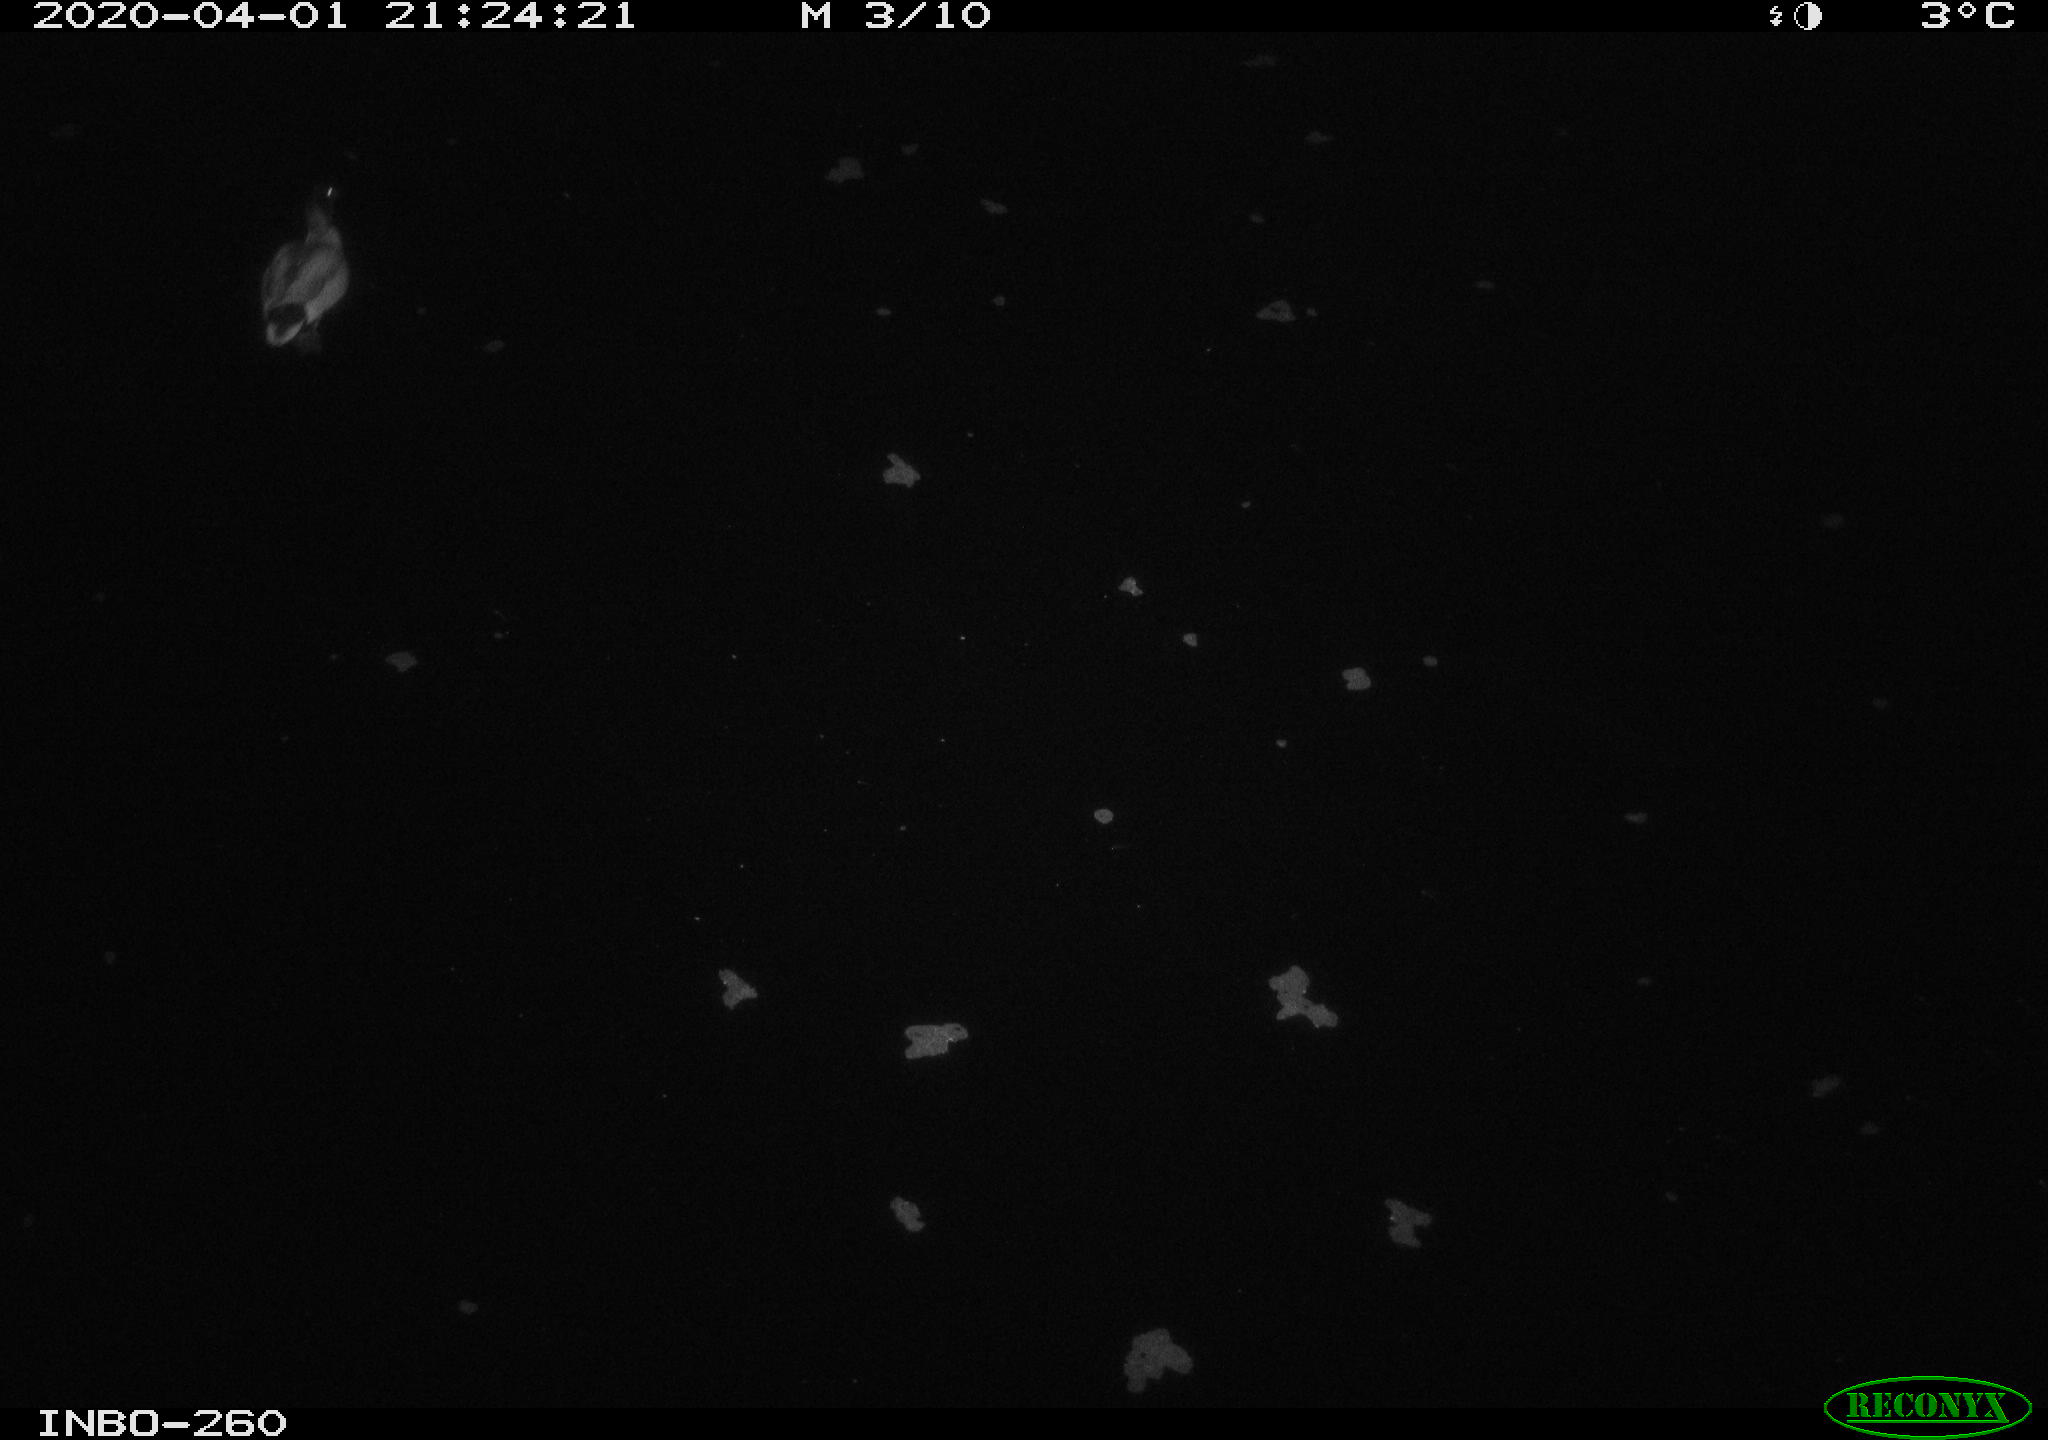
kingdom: Animalia
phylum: Chordata
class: Aves
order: Anseriformes
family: Anatidae
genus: Anas
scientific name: Anas platyrhynchos
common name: Mallard
